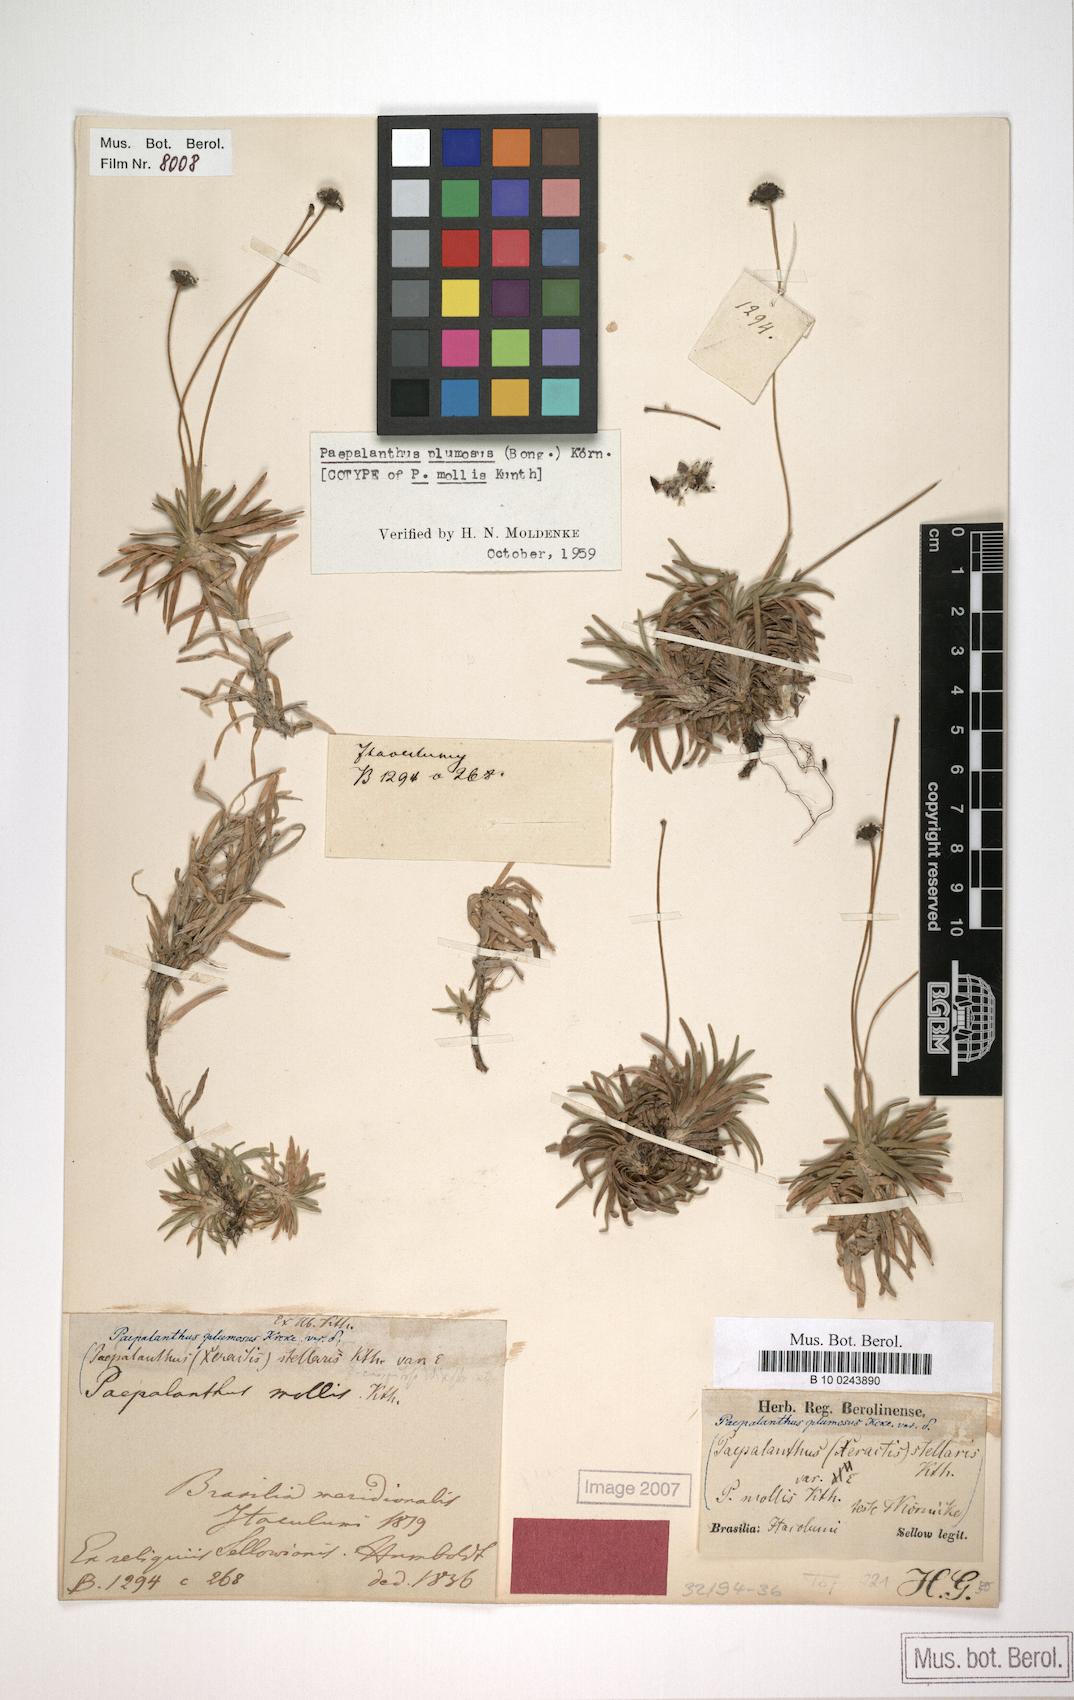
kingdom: Plantae
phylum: Tracheophyta
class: Liliopsida
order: Poales
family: Eriocaulaceae
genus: Paepalanthus
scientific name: Paepalanthus mollis
